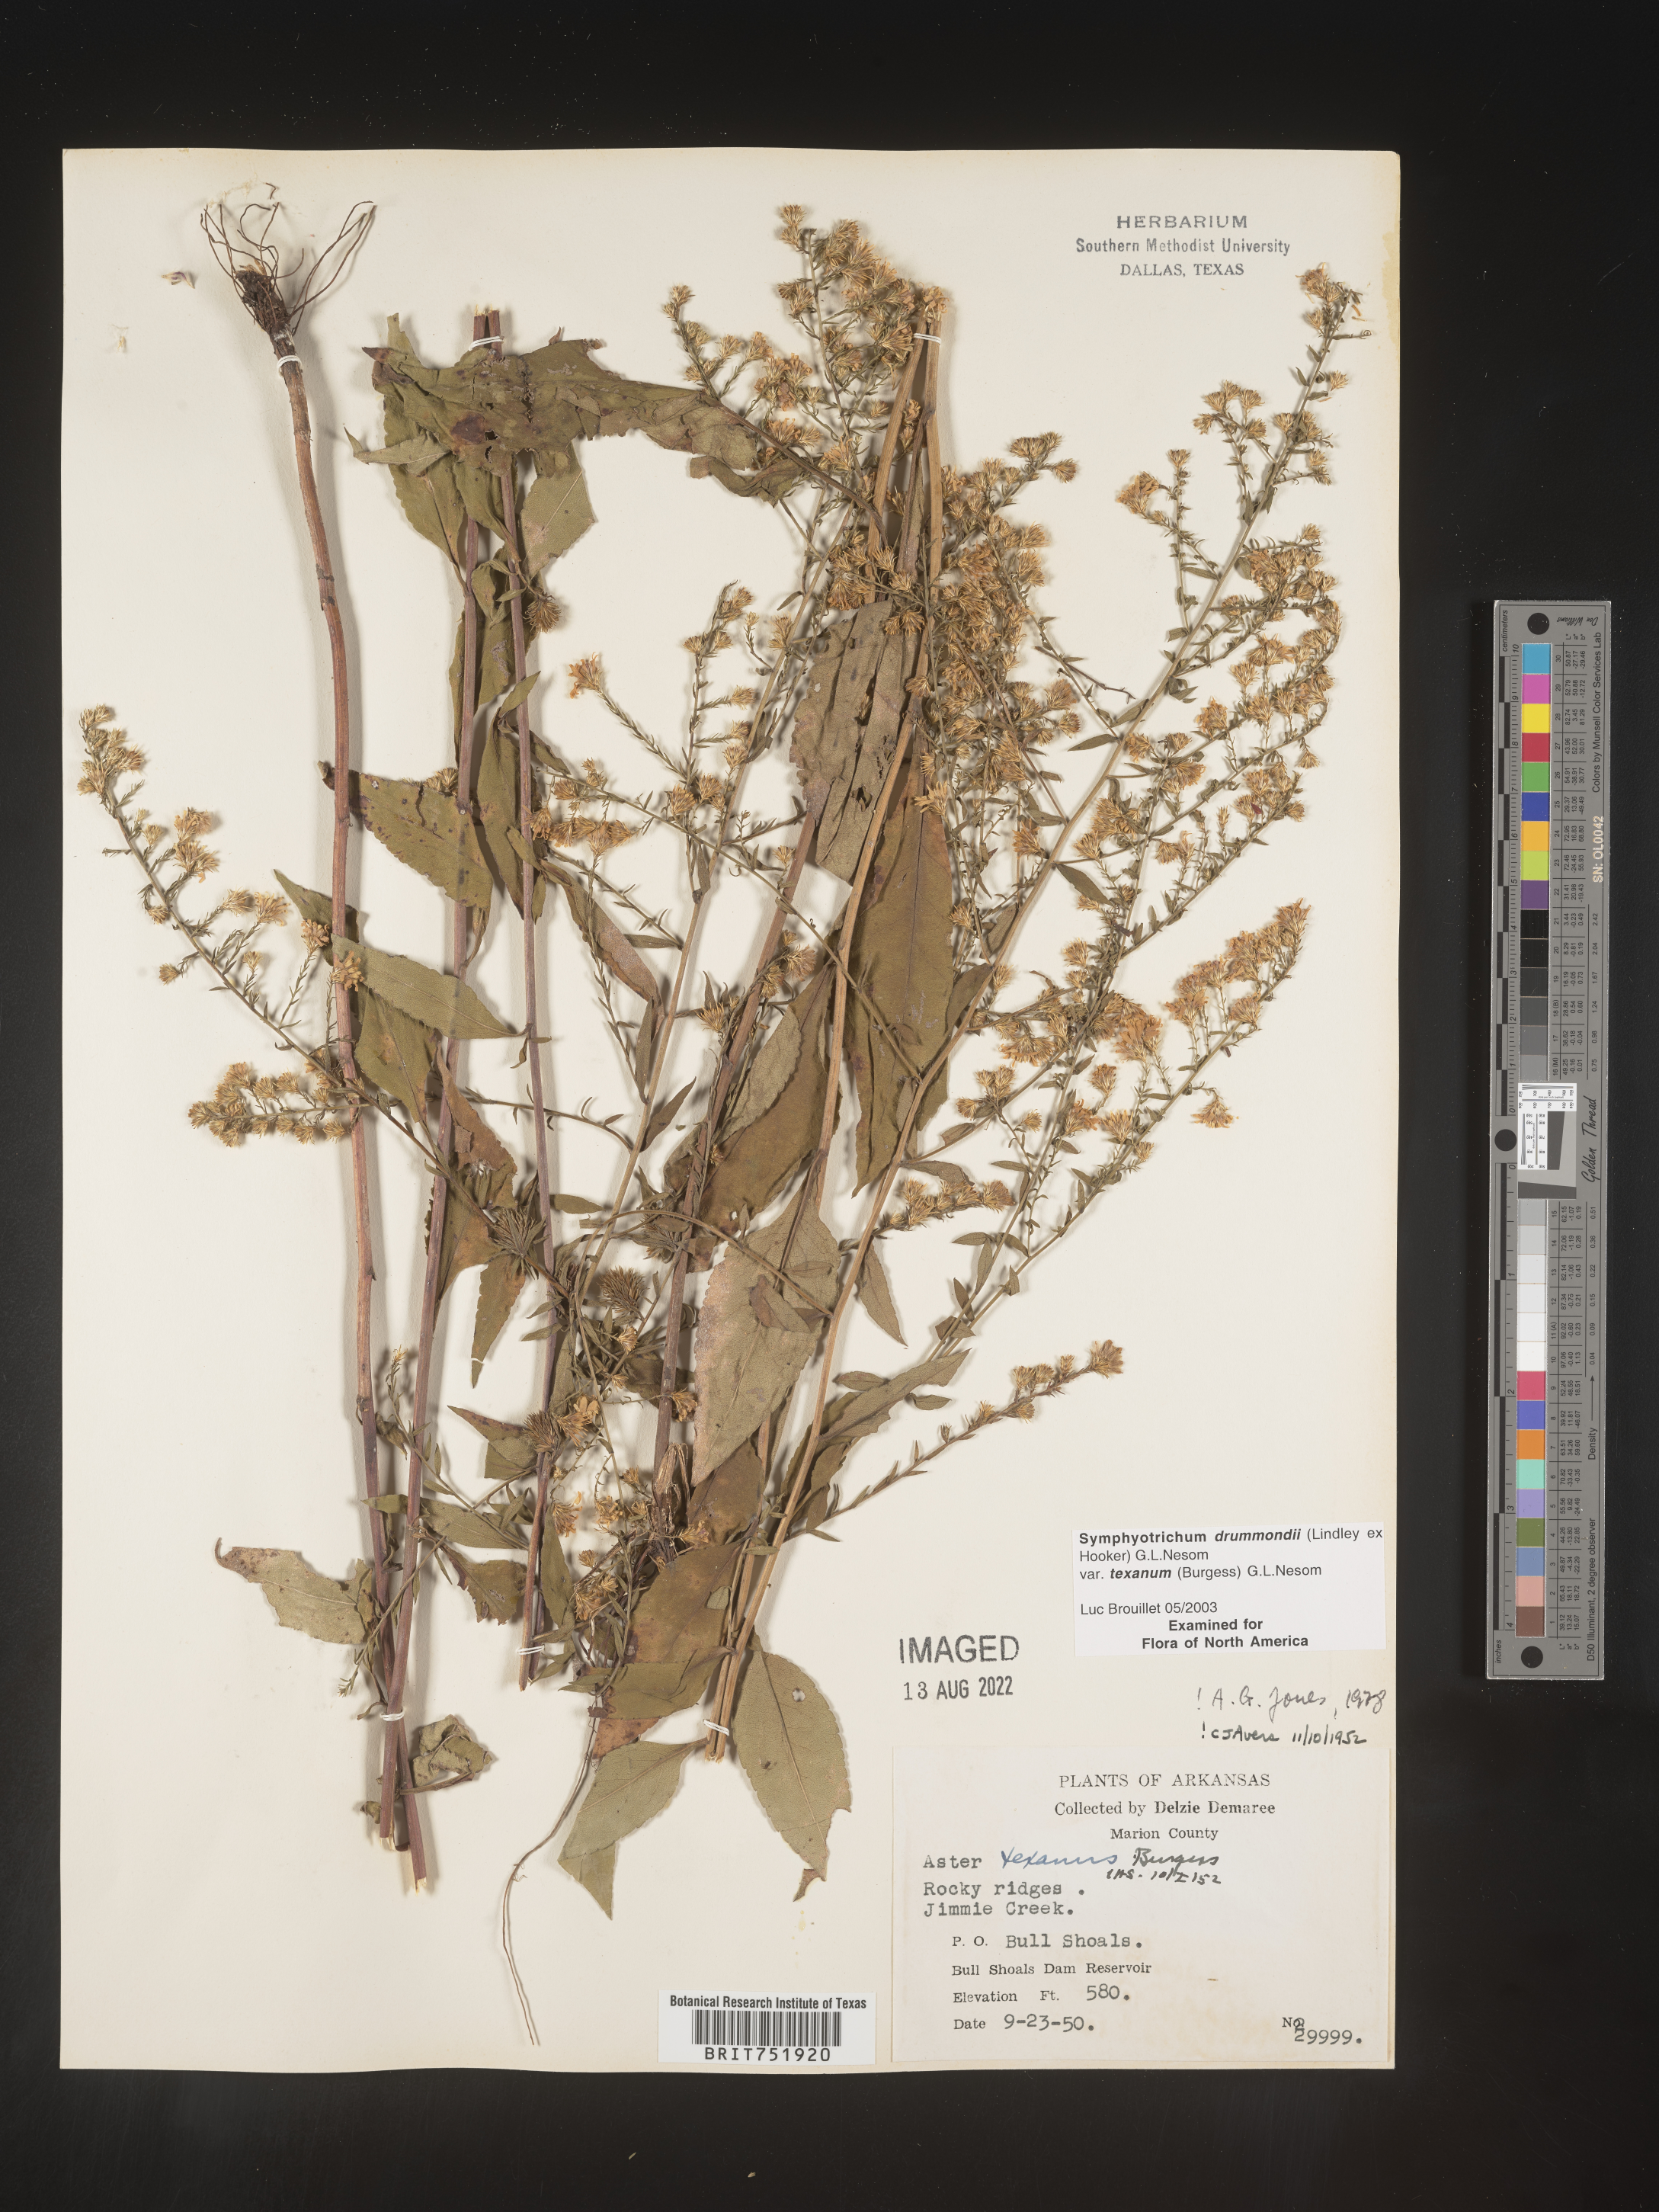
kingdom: Plantae
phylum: Tracheophyta
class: Magnoliopsida
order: Asterales
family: Asteraceae
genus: Symphyotrichum
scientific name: Symphyotrichum drummondii
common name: Drummond's aster
